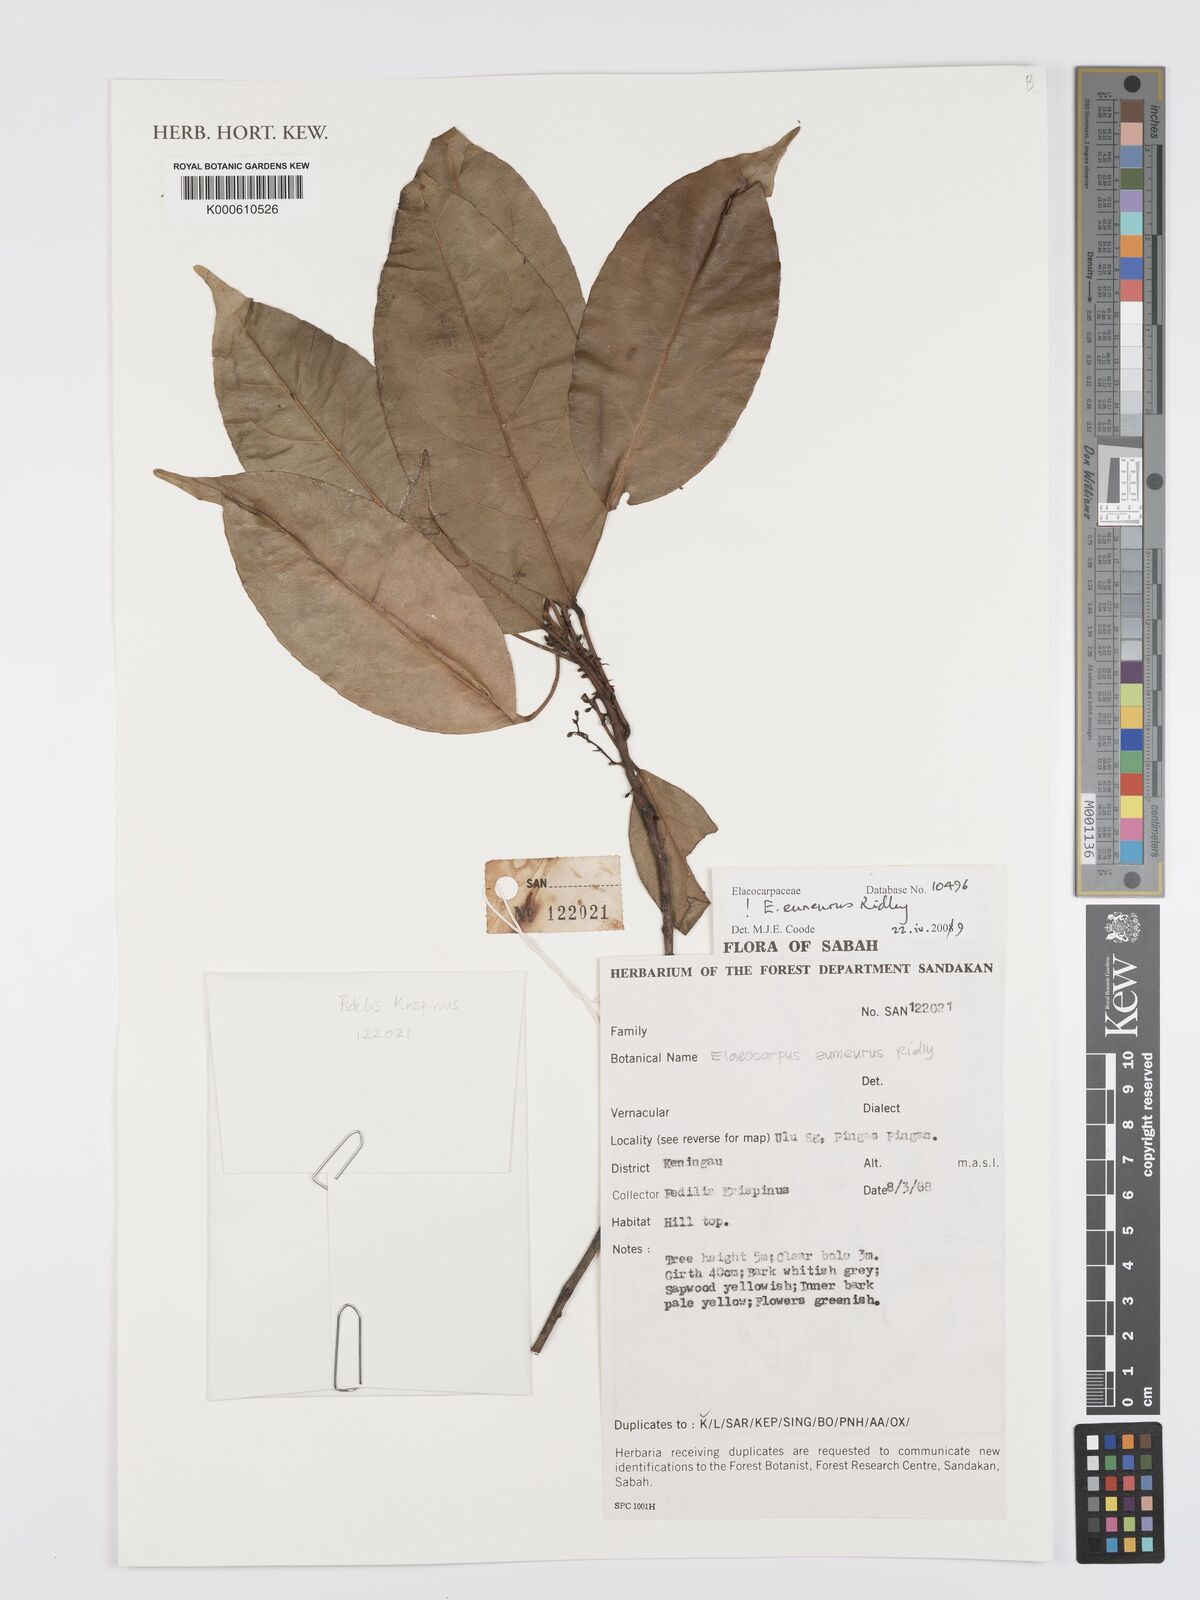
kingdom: Plantae
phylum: Tracheophyta
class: Magnoliopsida
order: Oxalidales
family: Elaeocarpaceae
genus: Elaeocarpus
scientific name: Elaeocarpus
